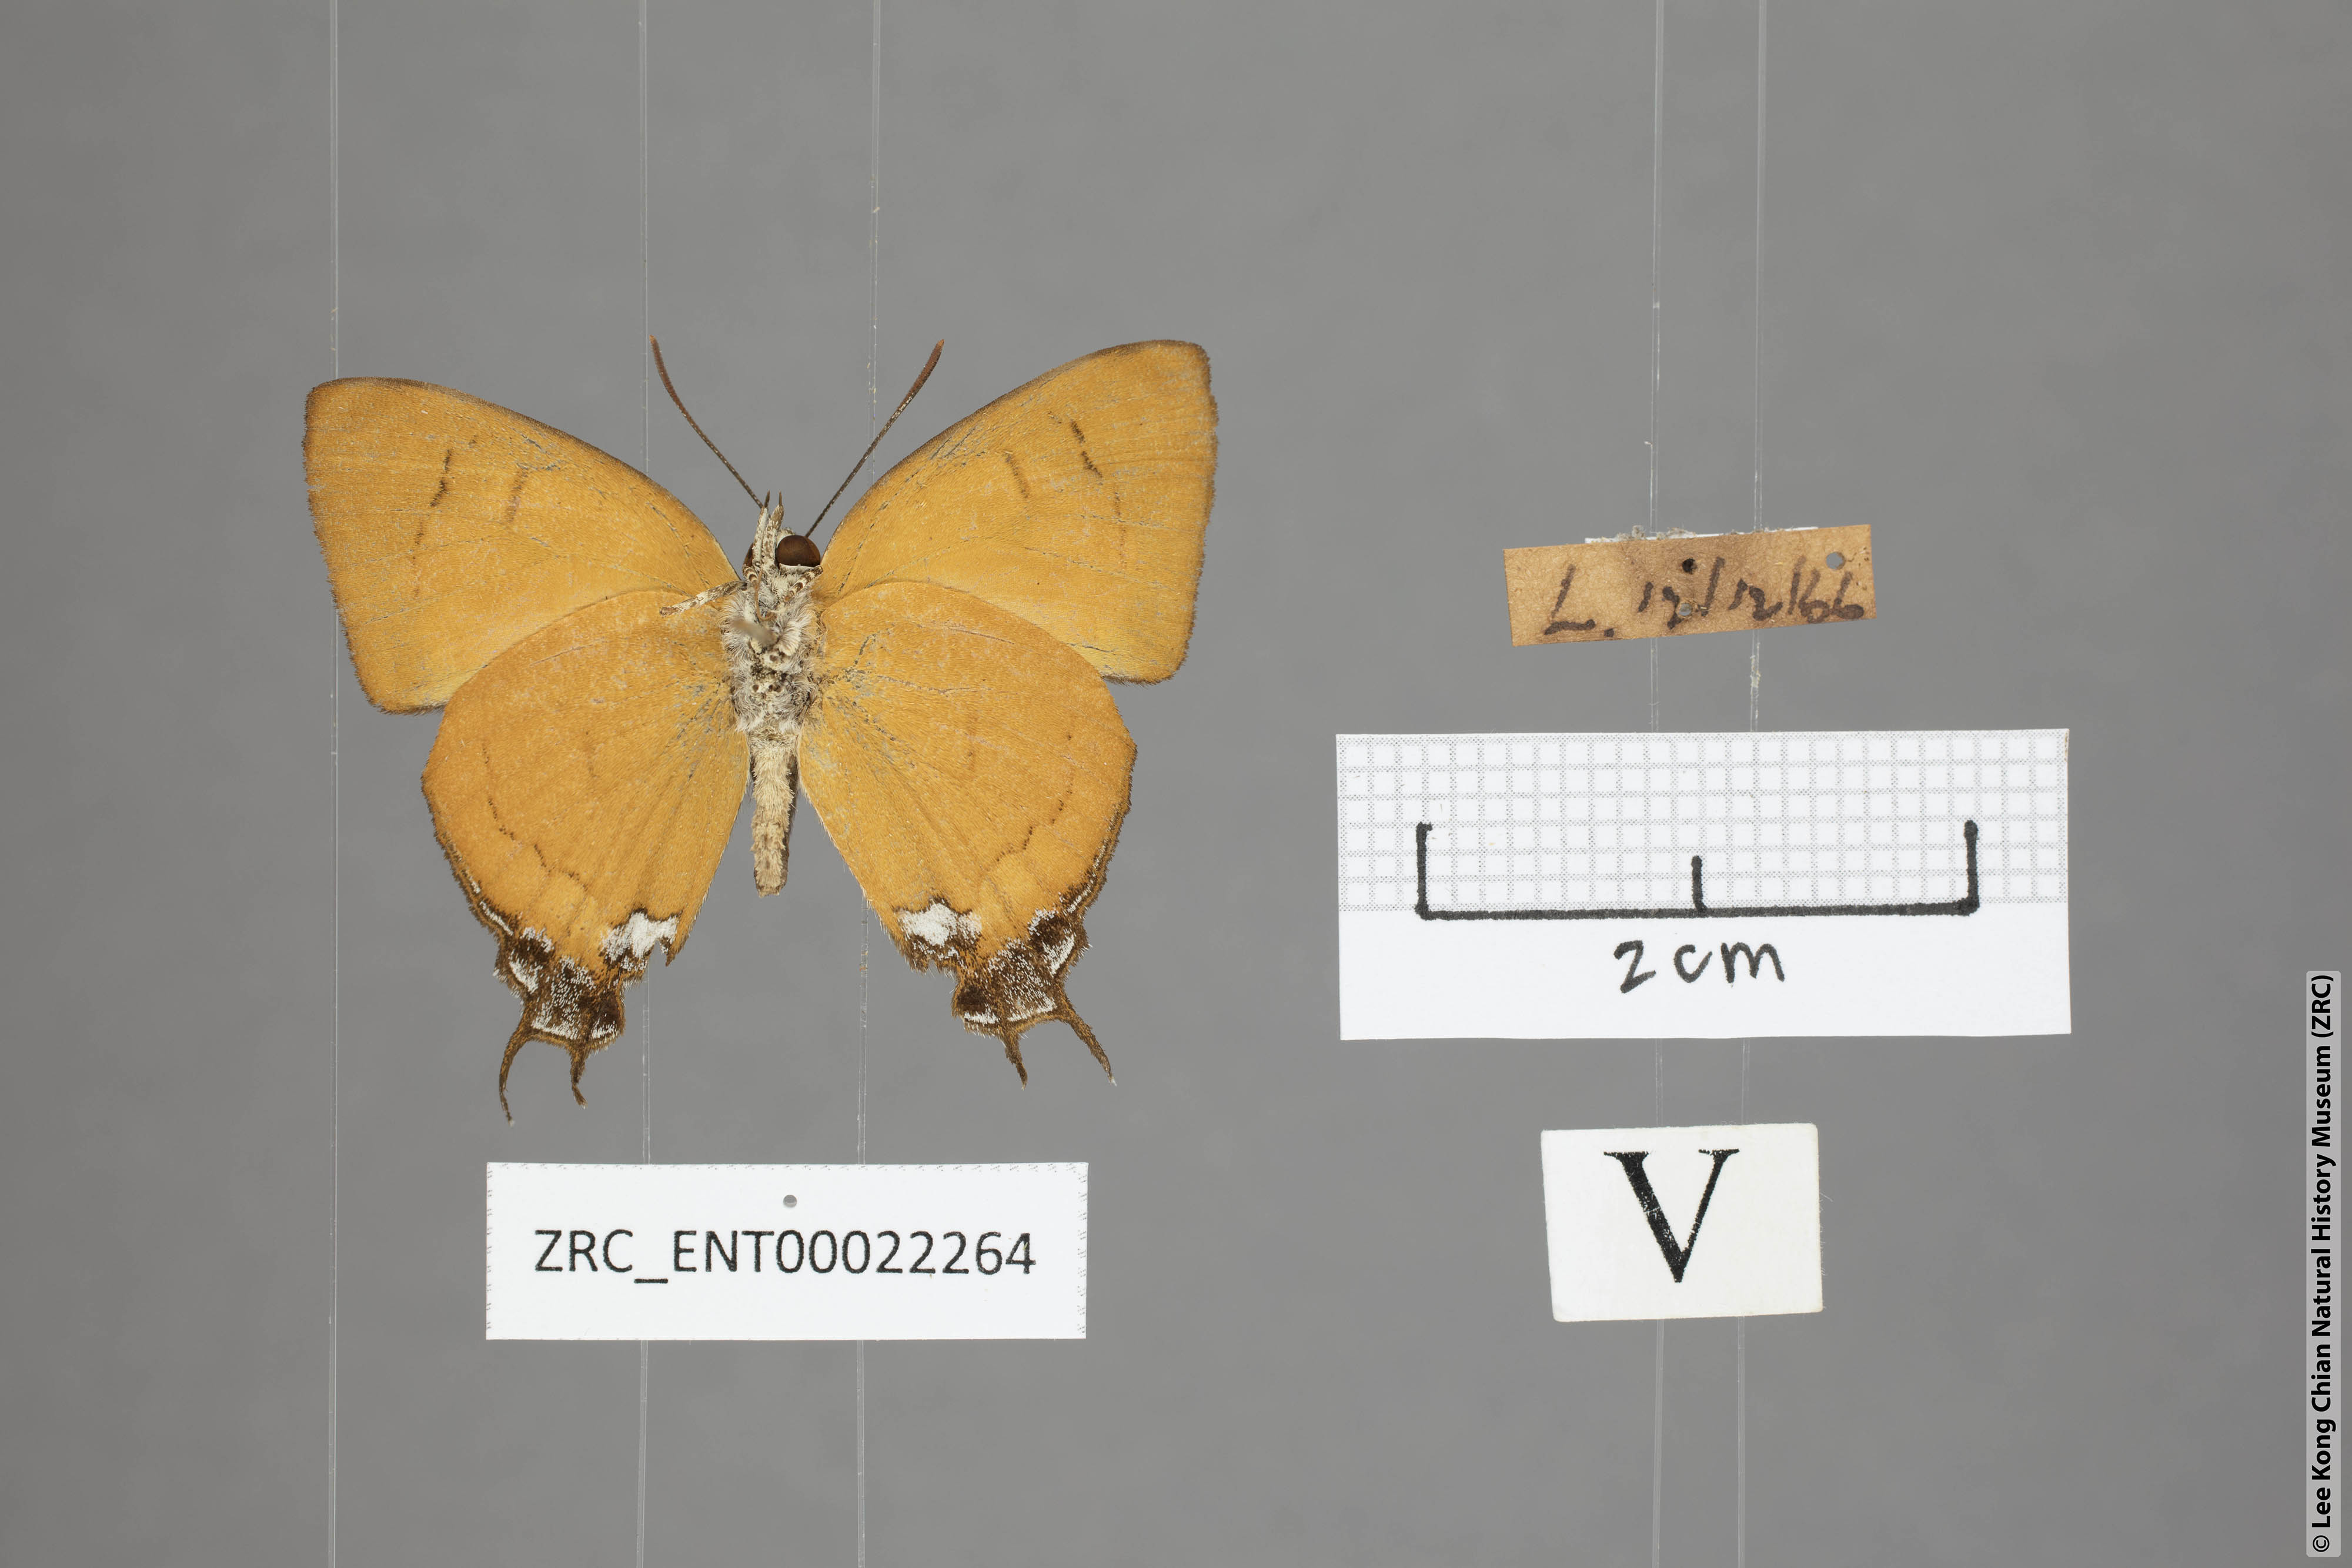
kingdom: Animalia
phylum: Arthropoda
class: Insecta
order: Lepidoptera
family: Lycaenidae
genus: Thamala
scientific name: Thamala marciana
